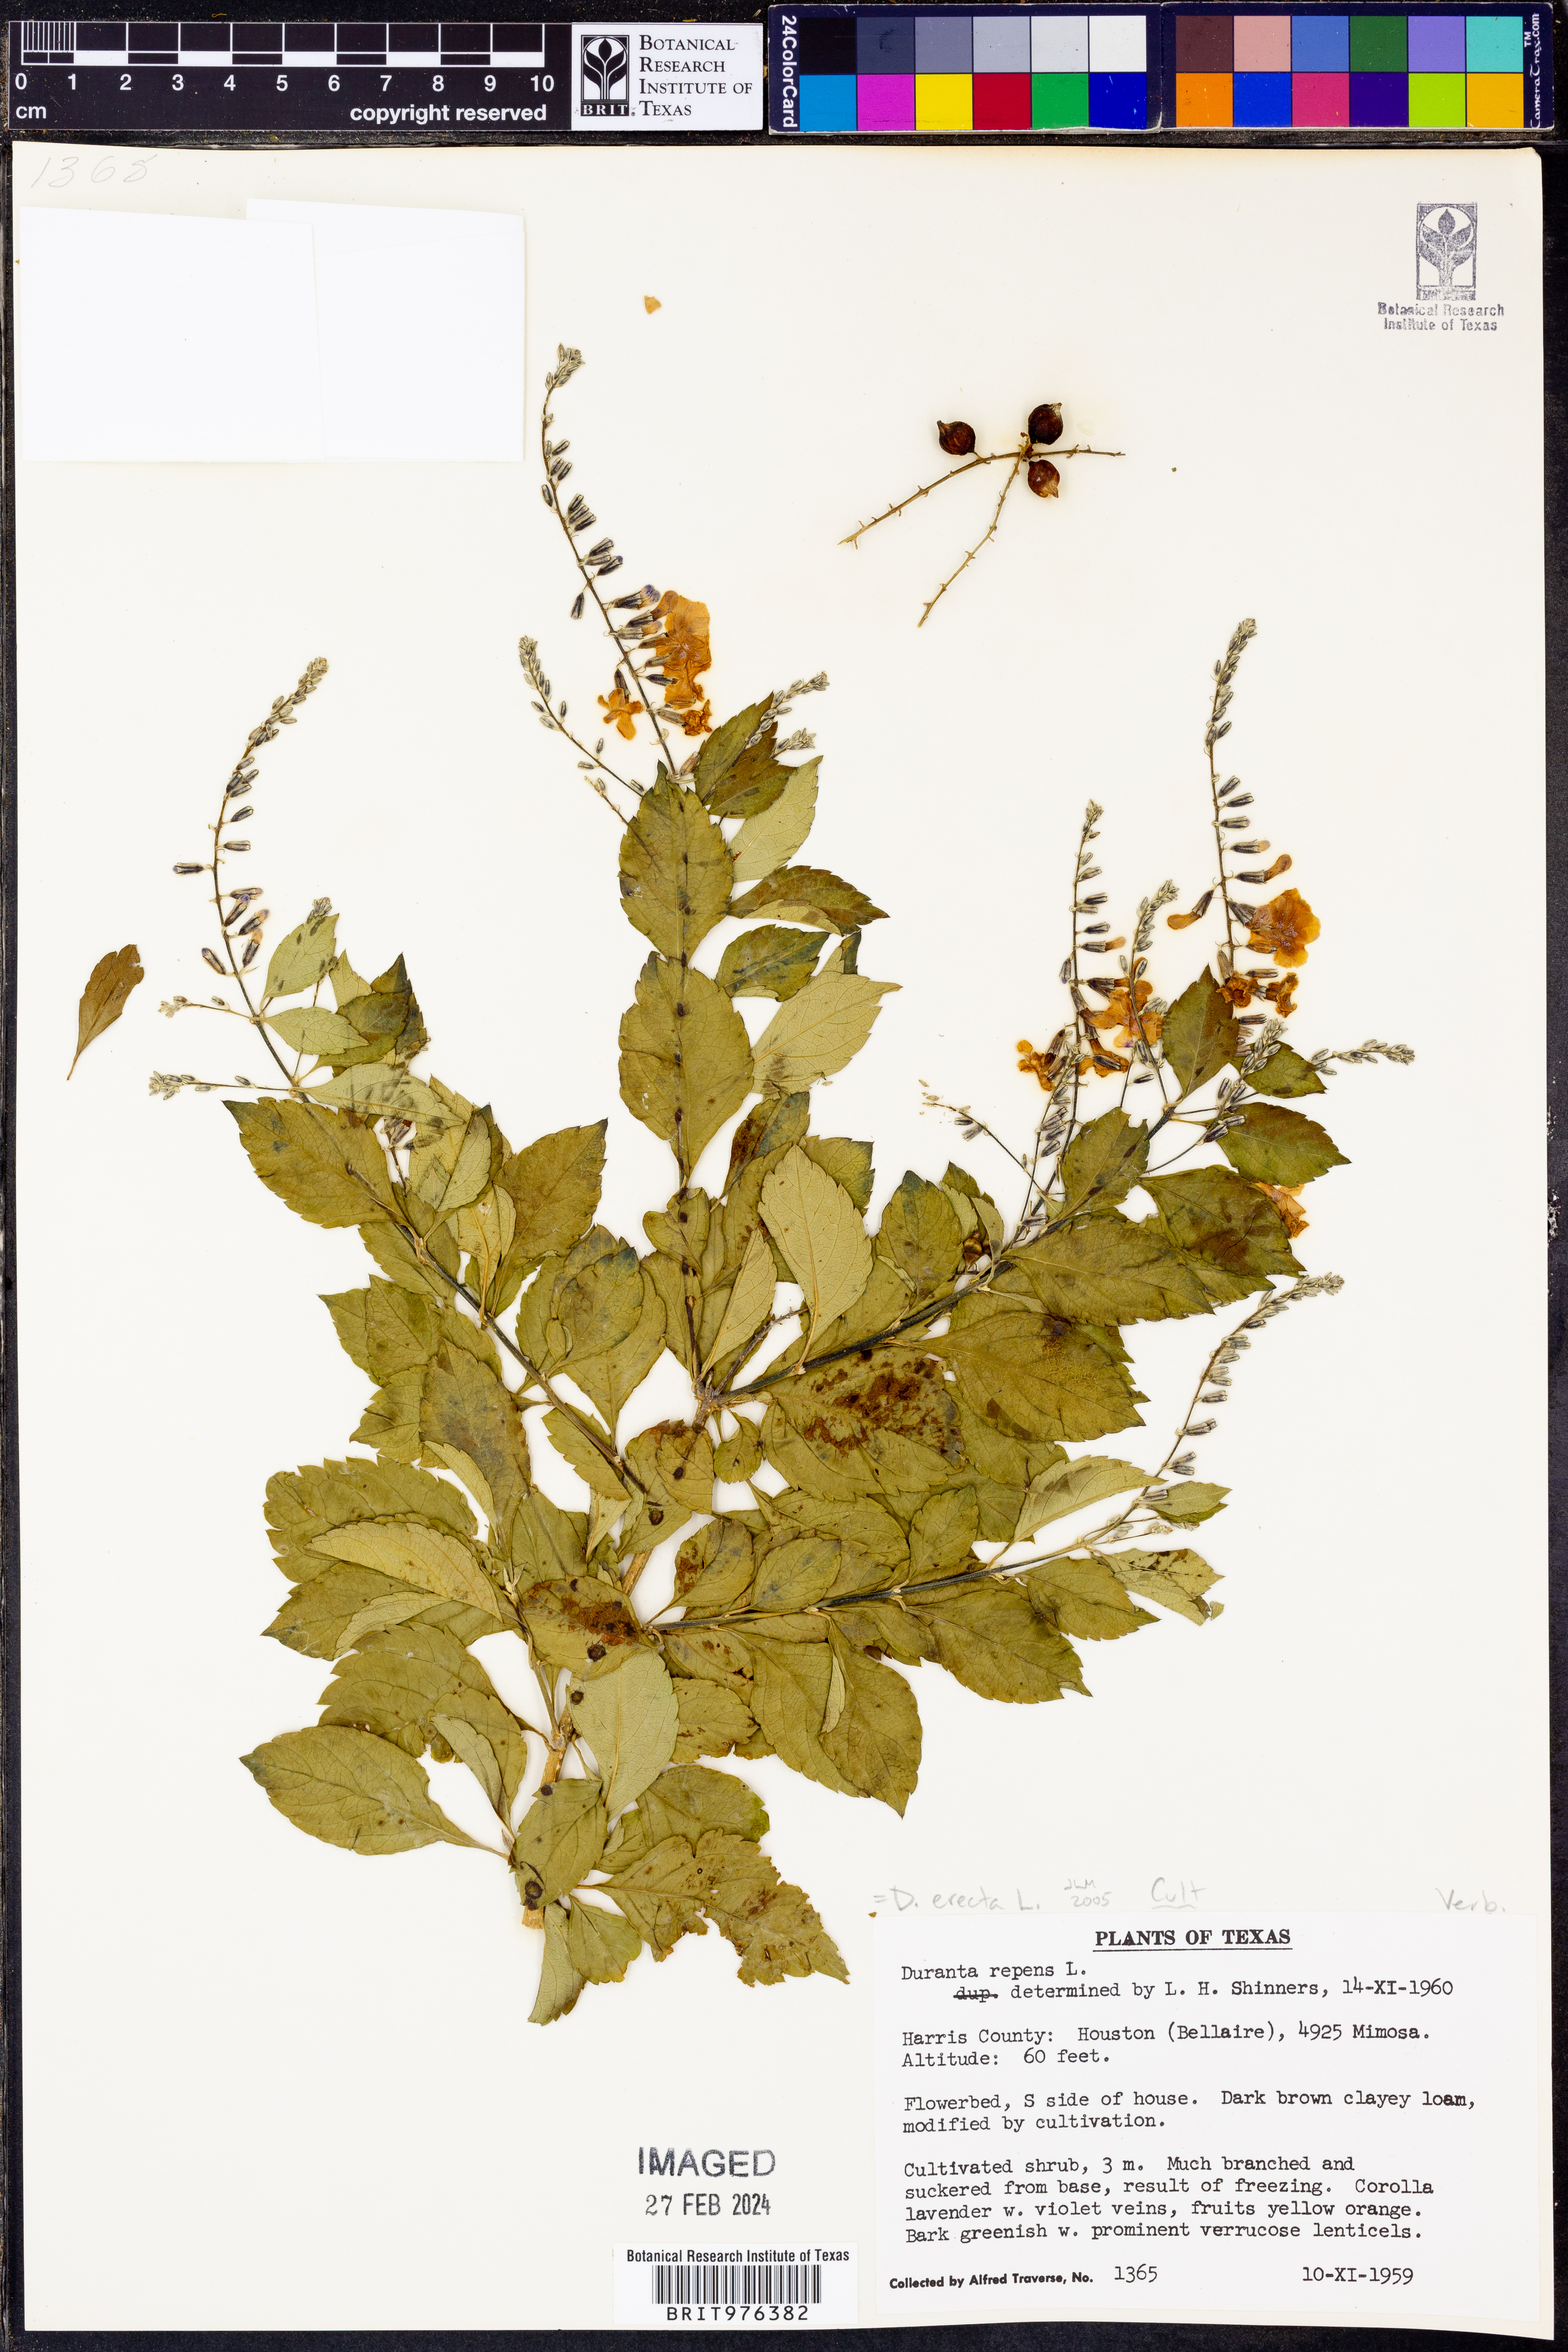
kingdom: Plantae
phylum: Tracheophyta
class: Magnoliopsida
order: Lamiales
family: Verbenaceae
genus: Duranta
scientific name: Duranta
